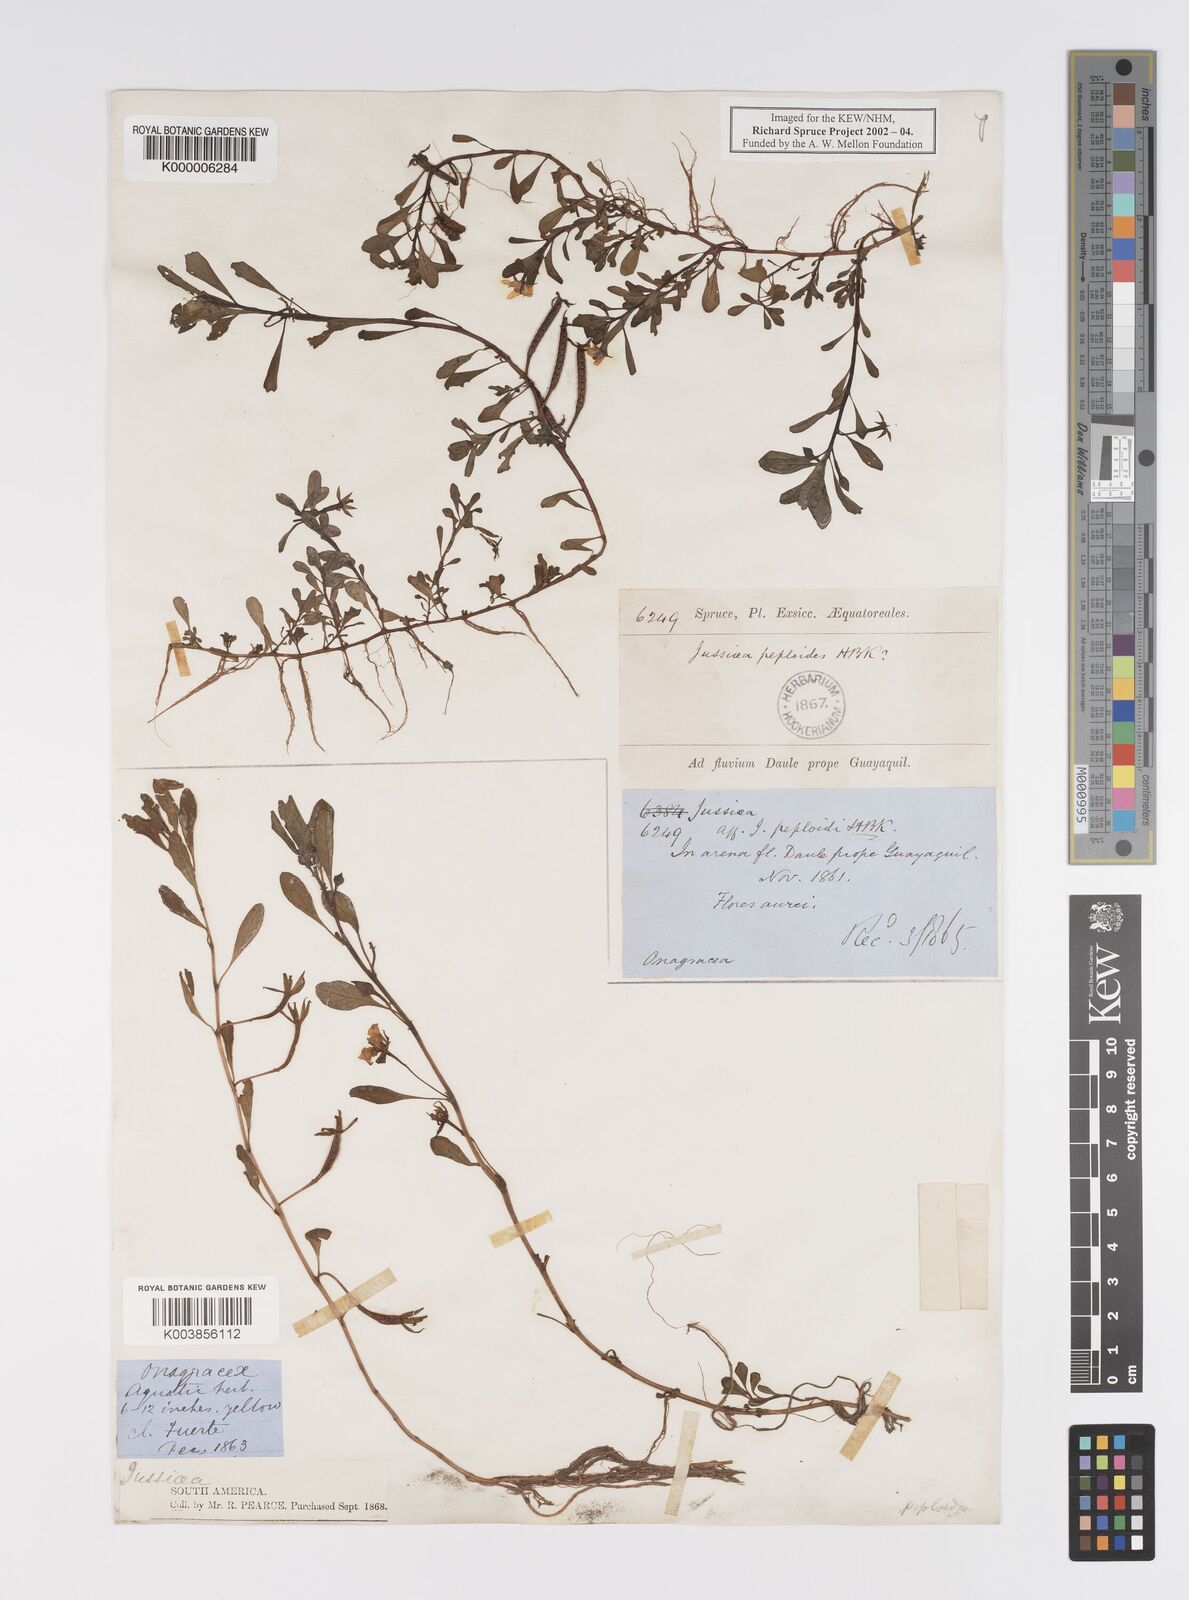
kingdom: Plantae
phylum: Tracheophyta
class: Magnoliopsida
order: Myrtales
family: Onagraceae
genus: Ludwigia
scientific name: Ludwigia
